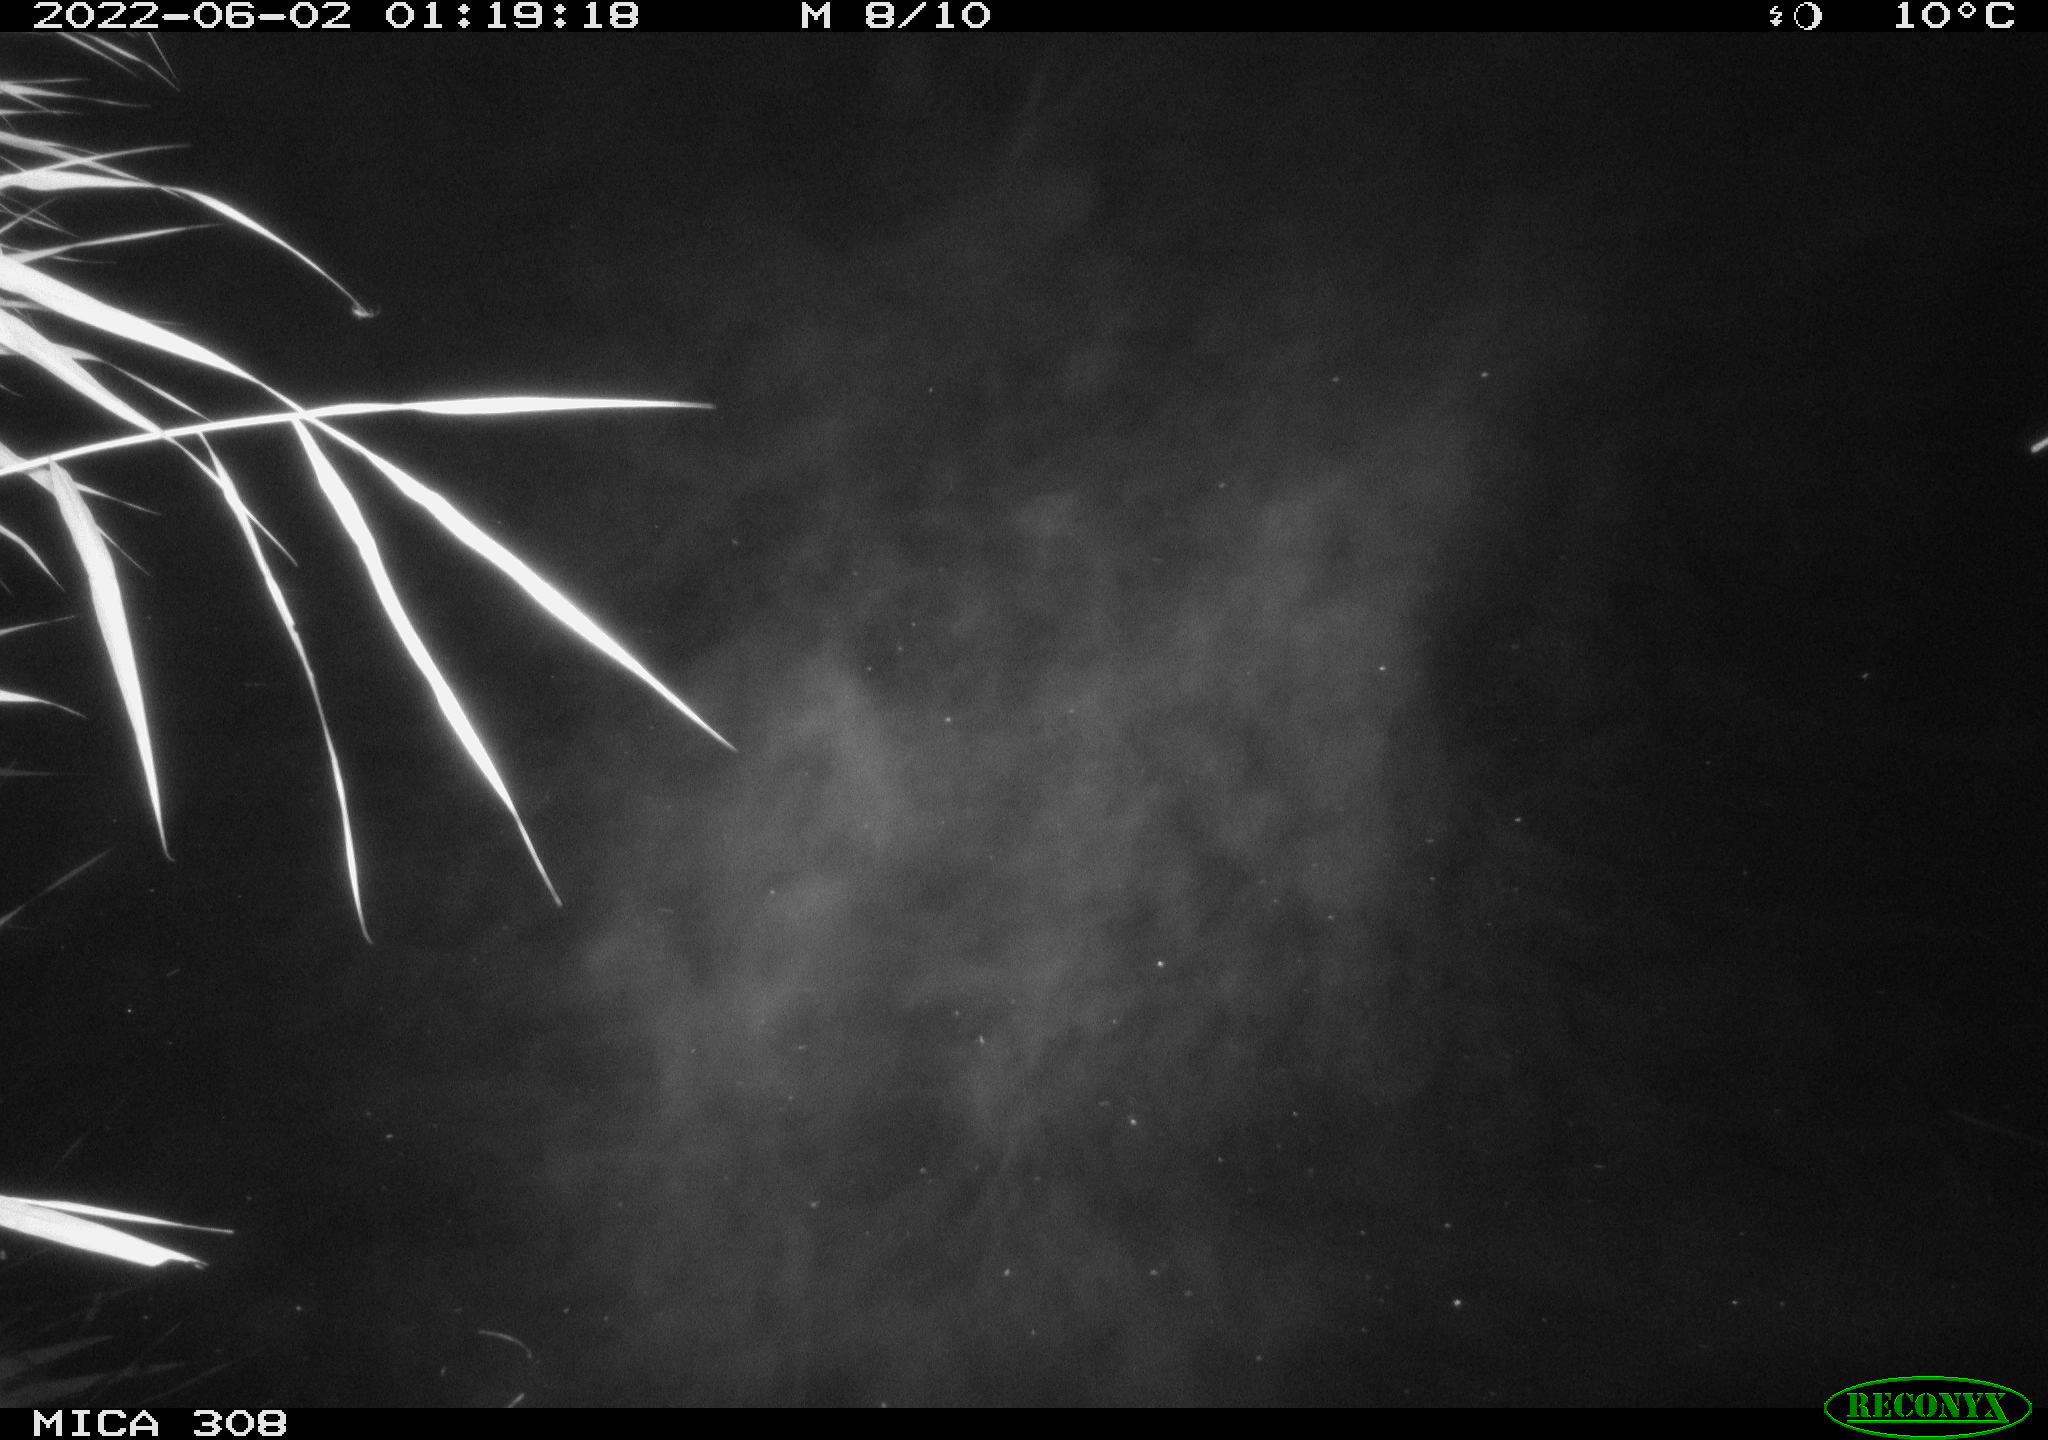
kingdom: Animalia
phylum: Chordata
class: Aves
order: Anseriformes
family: Anatidae
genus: Anas
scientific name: Anas platyrhynchos
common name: Mallard
